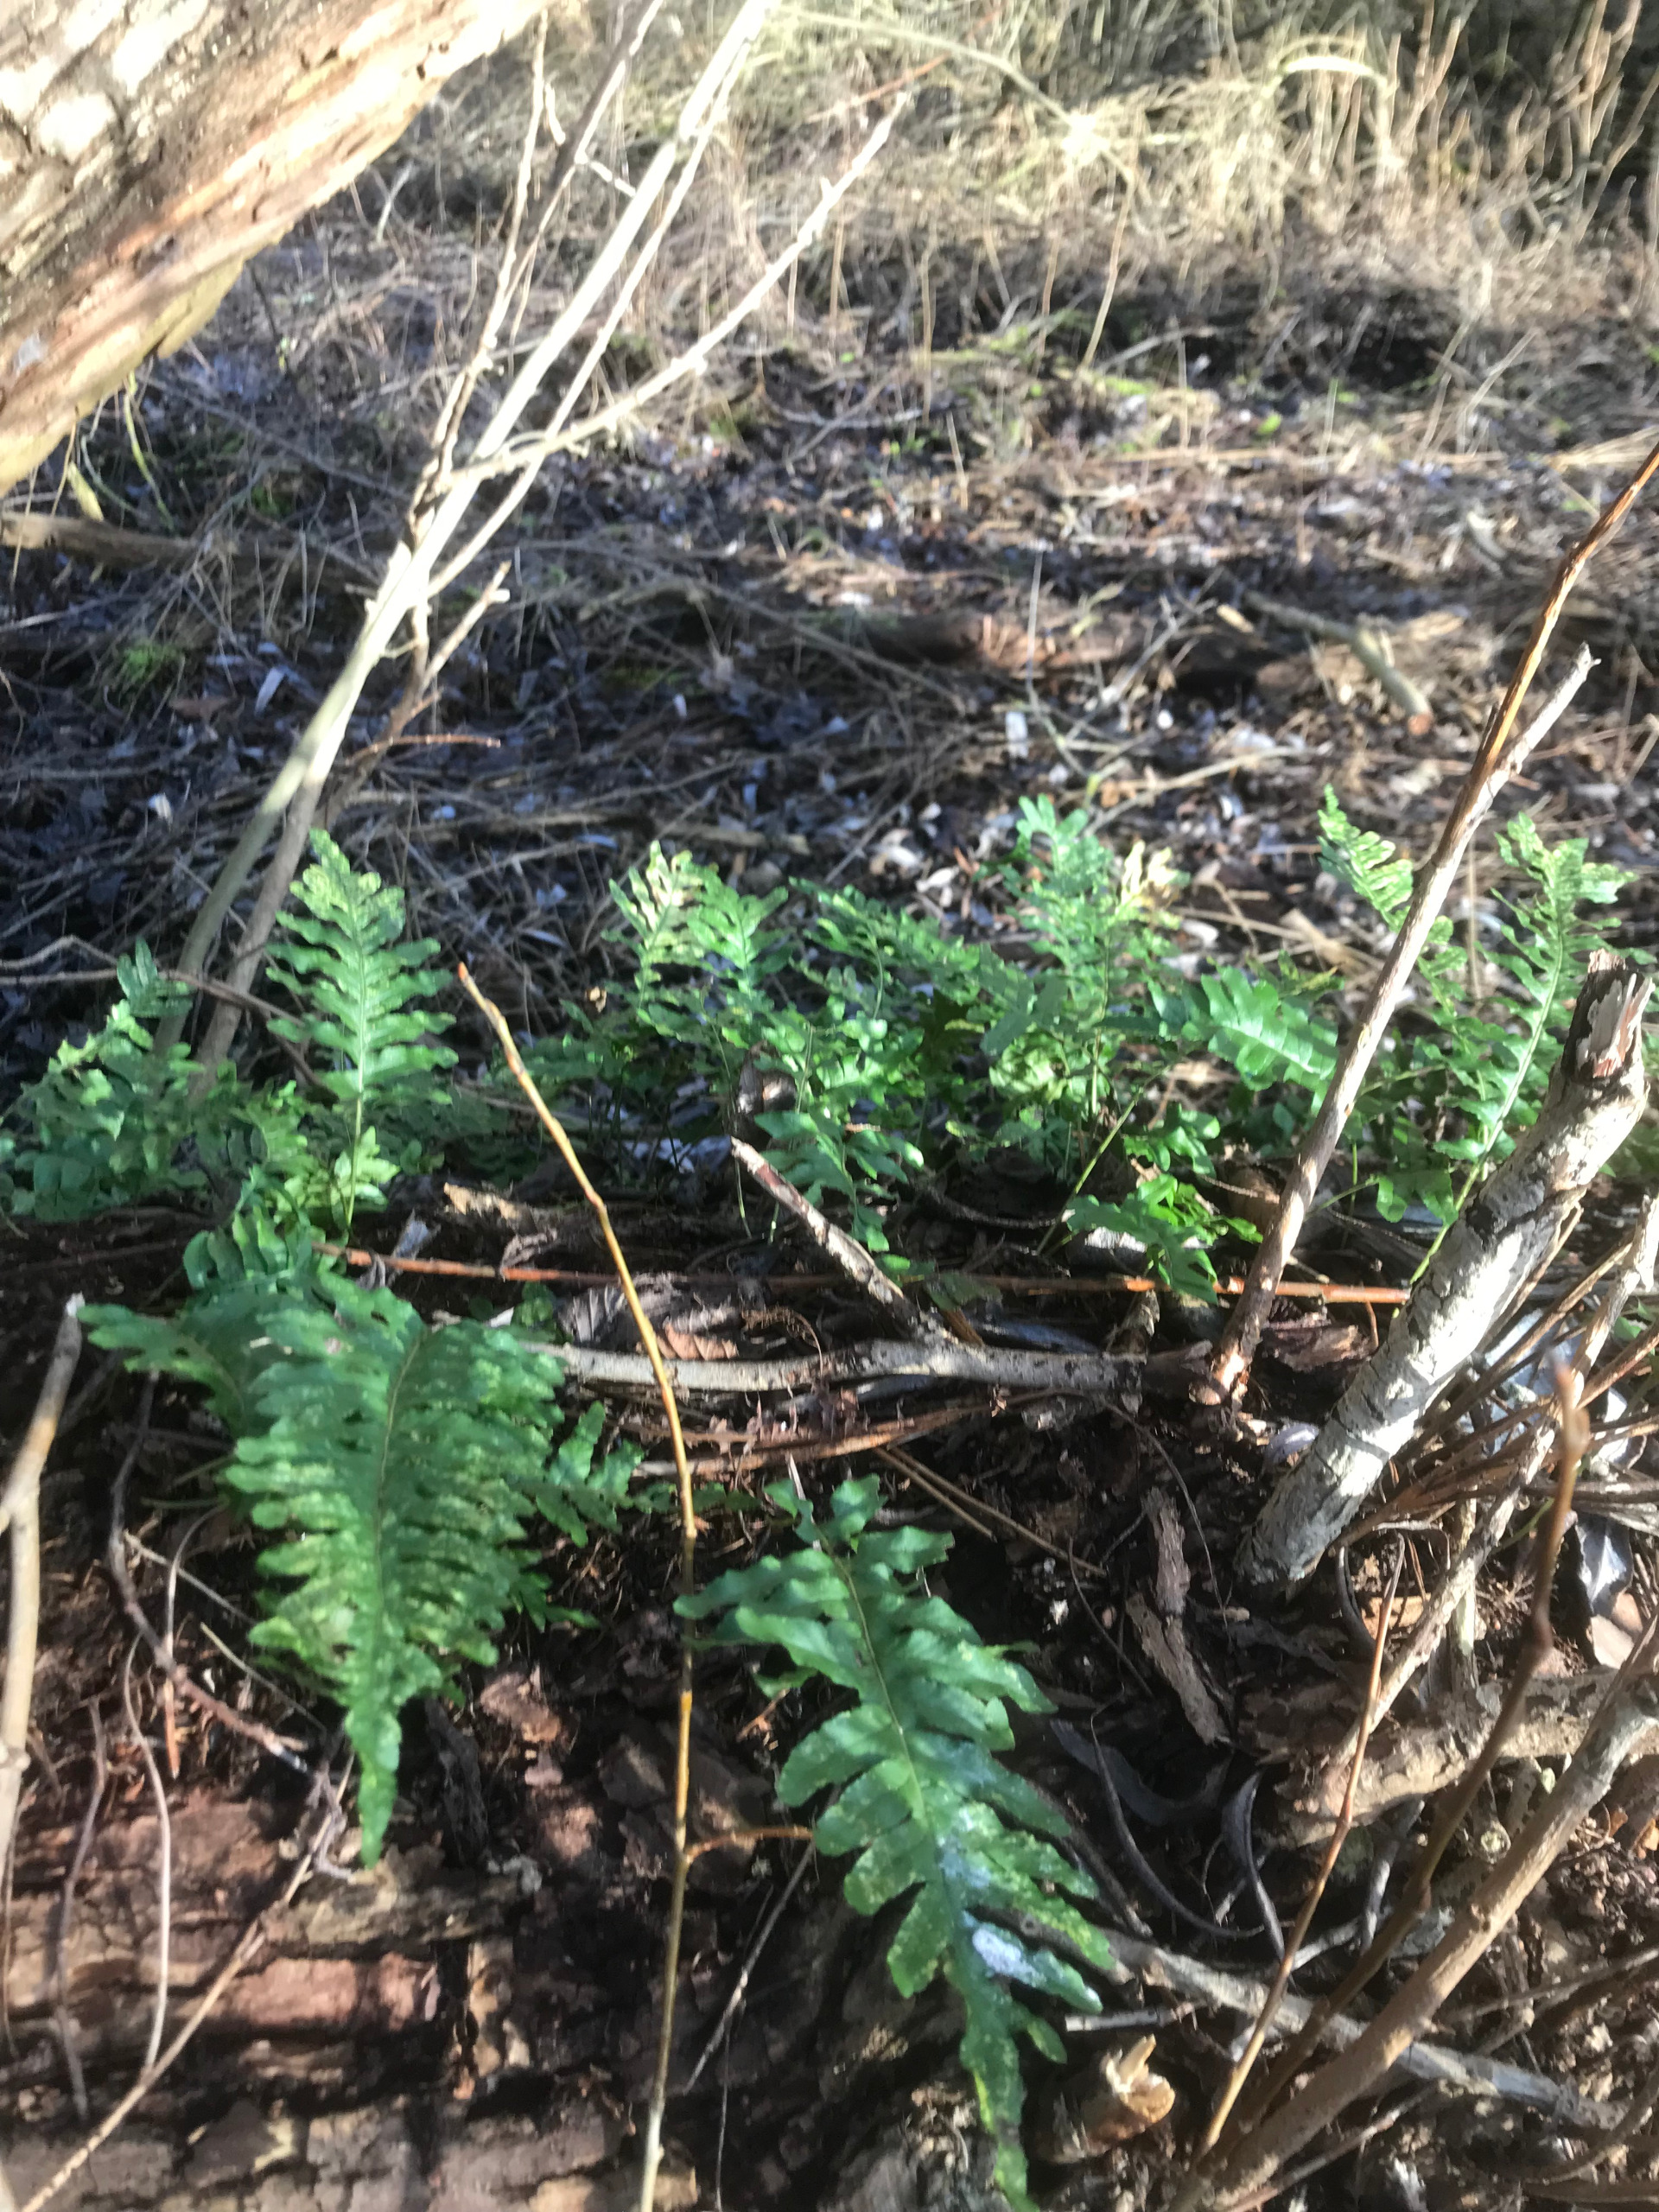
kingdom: Plantae
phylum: Tracheophyta
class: Polypodiopsida
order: Polypodiales
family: Polypodiaceae
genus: Polypodium
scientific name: Polypodium vulgare
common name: Almindelig engelsød
